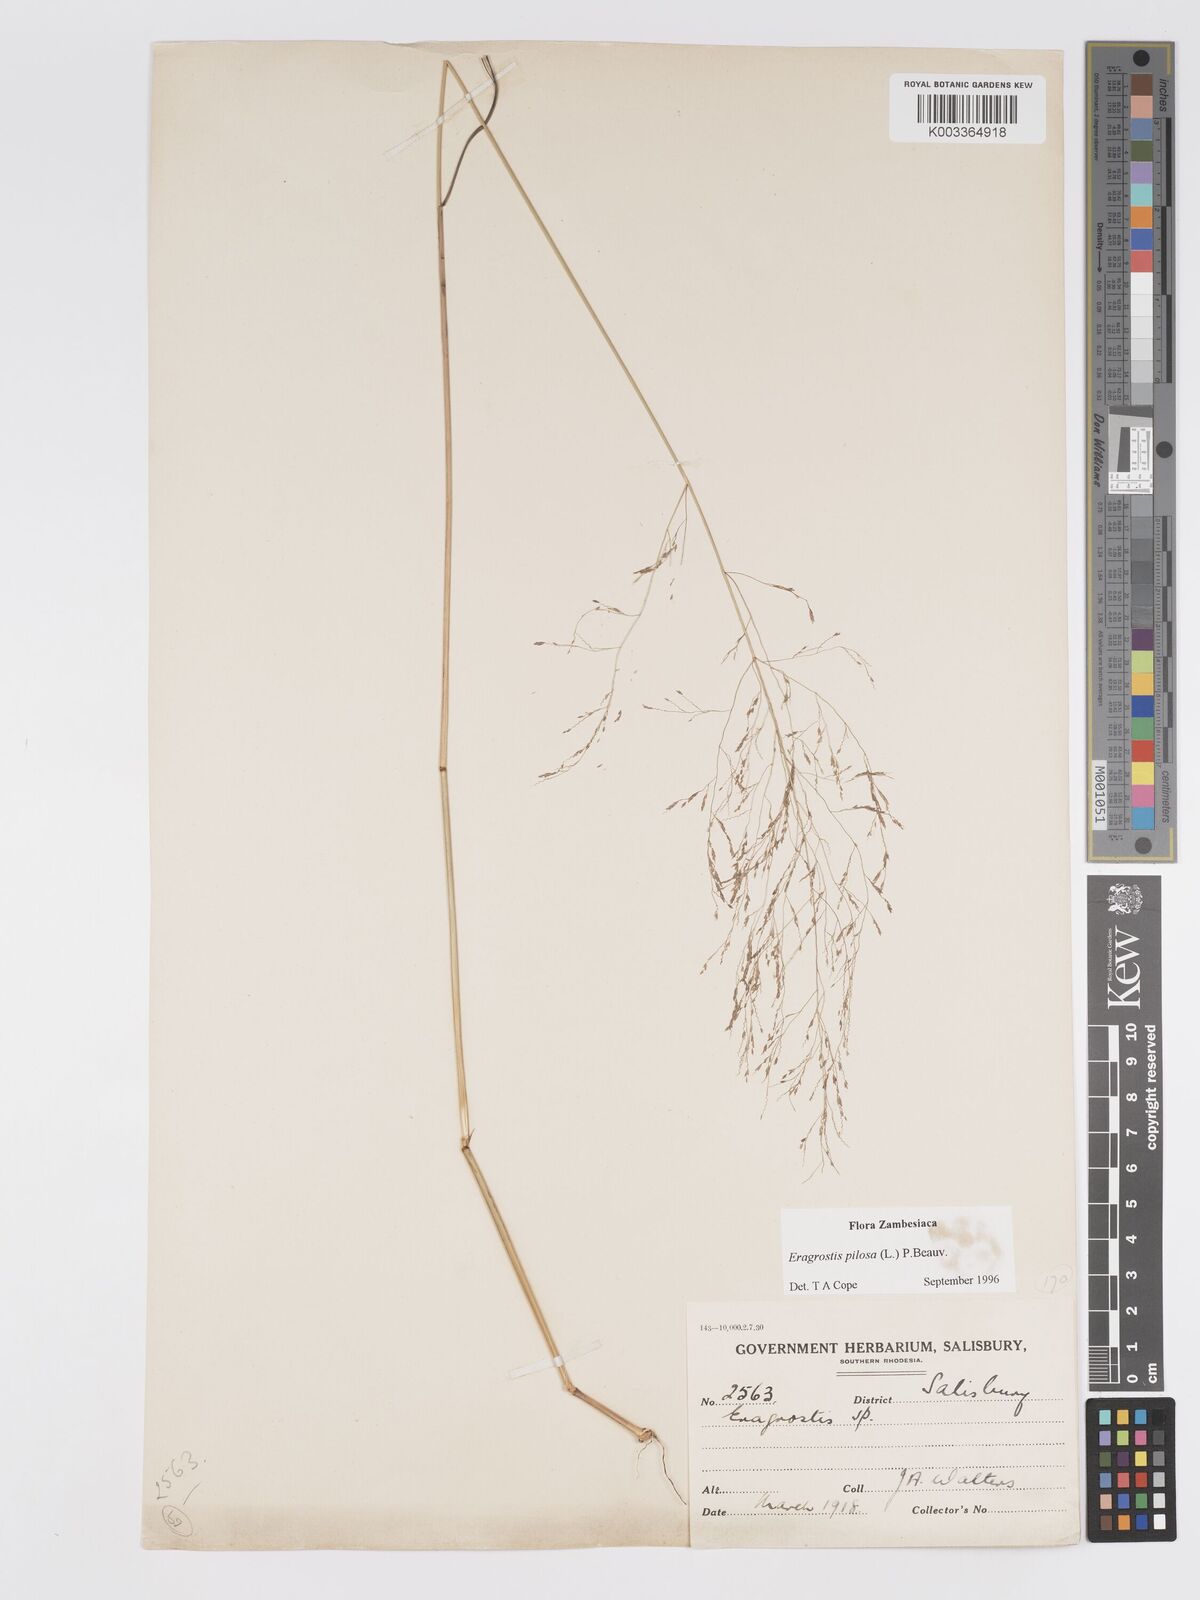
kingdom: Plantae
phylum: Tracheophyta
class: Liliopsida
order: Poales
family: Poaceae
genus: Eragrostis
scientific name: Eragrostis pilosa
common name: Indian lovegrass
